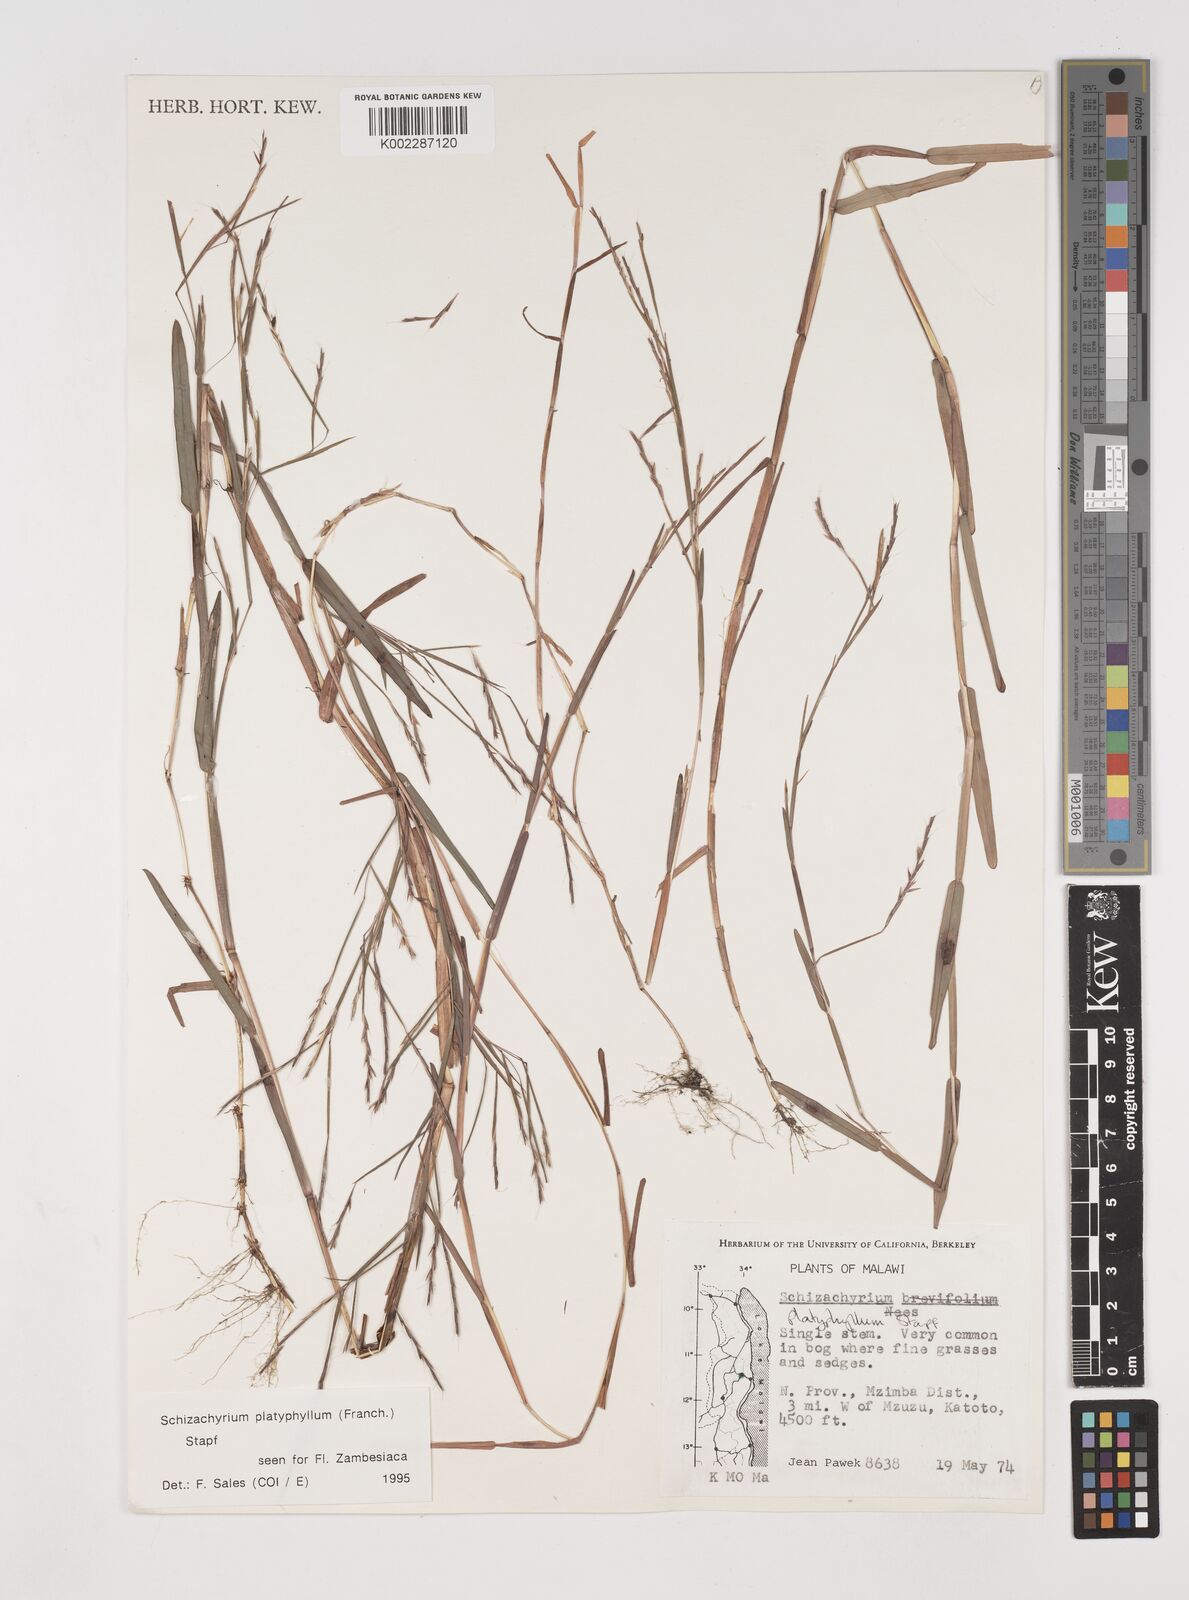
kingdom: Plantae
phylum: Tracheophyta
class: Liliopsida
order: Poales
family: Poaceae
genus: Schizachyrium
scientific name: Schizachyrium platyphyllum
